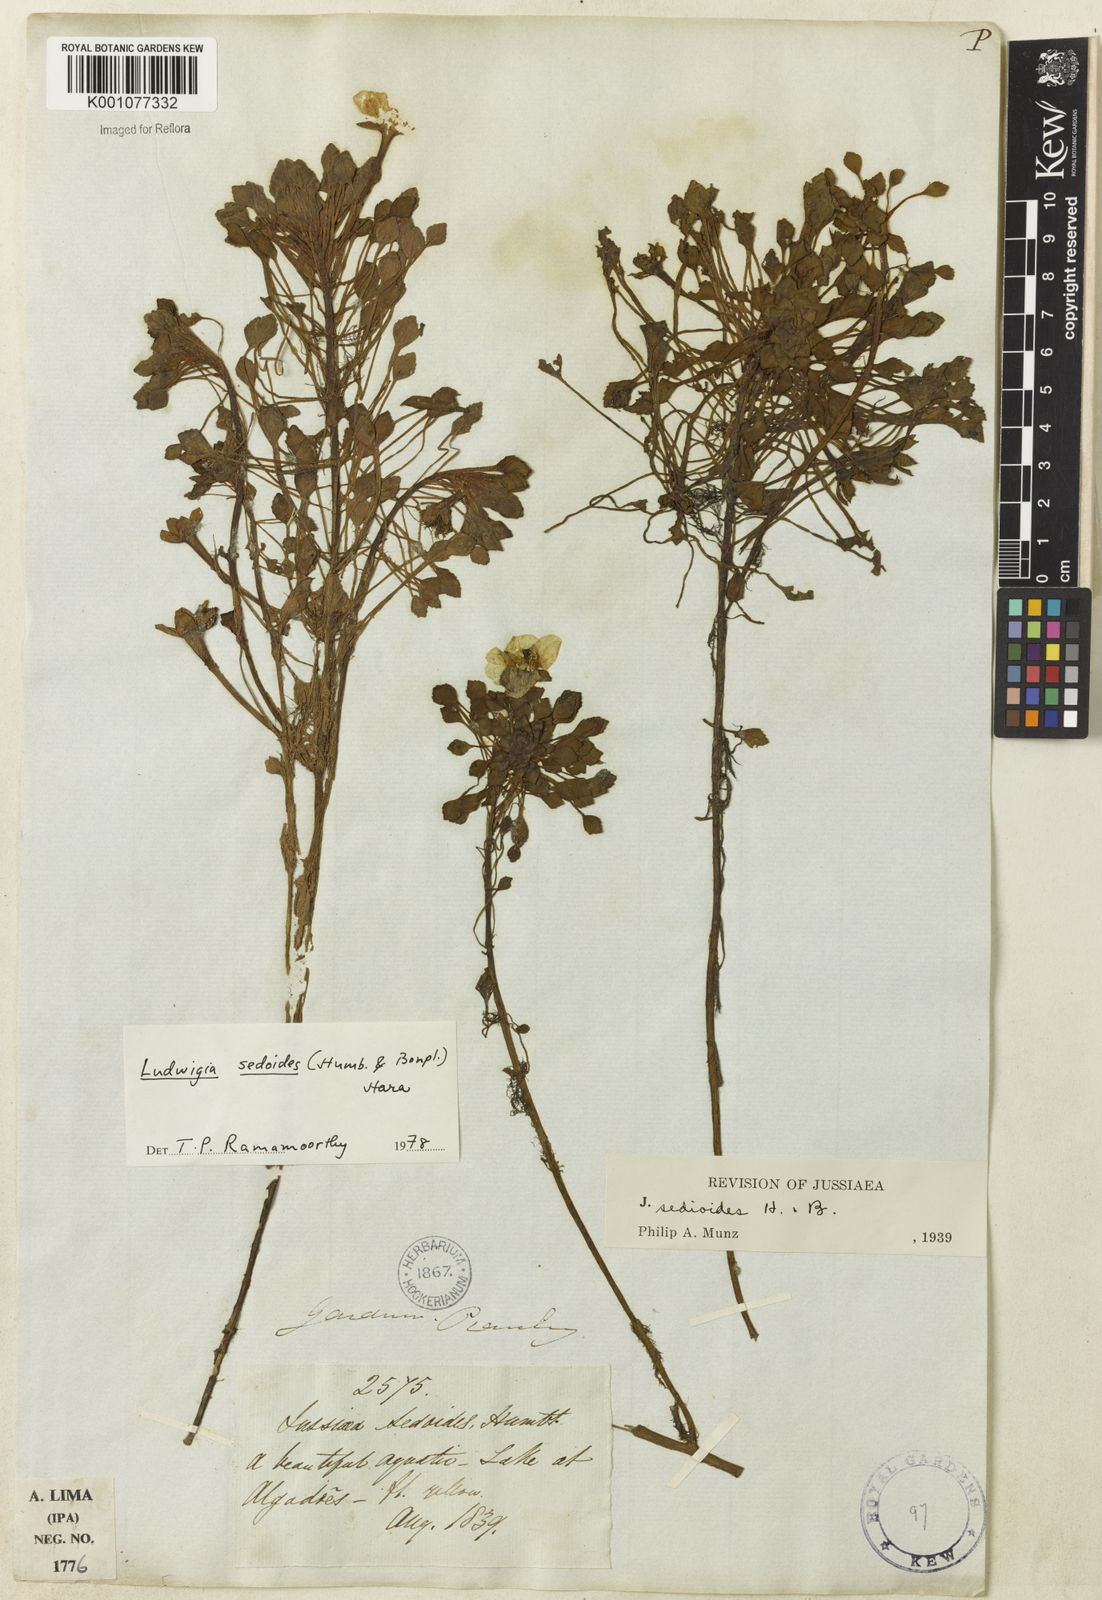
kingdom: Plantae
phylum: Tracheophyta
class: Magnoliopsida
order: Myrtales
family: Onagraceae
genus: Ludwigia
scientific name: Ludwigia sedoides
